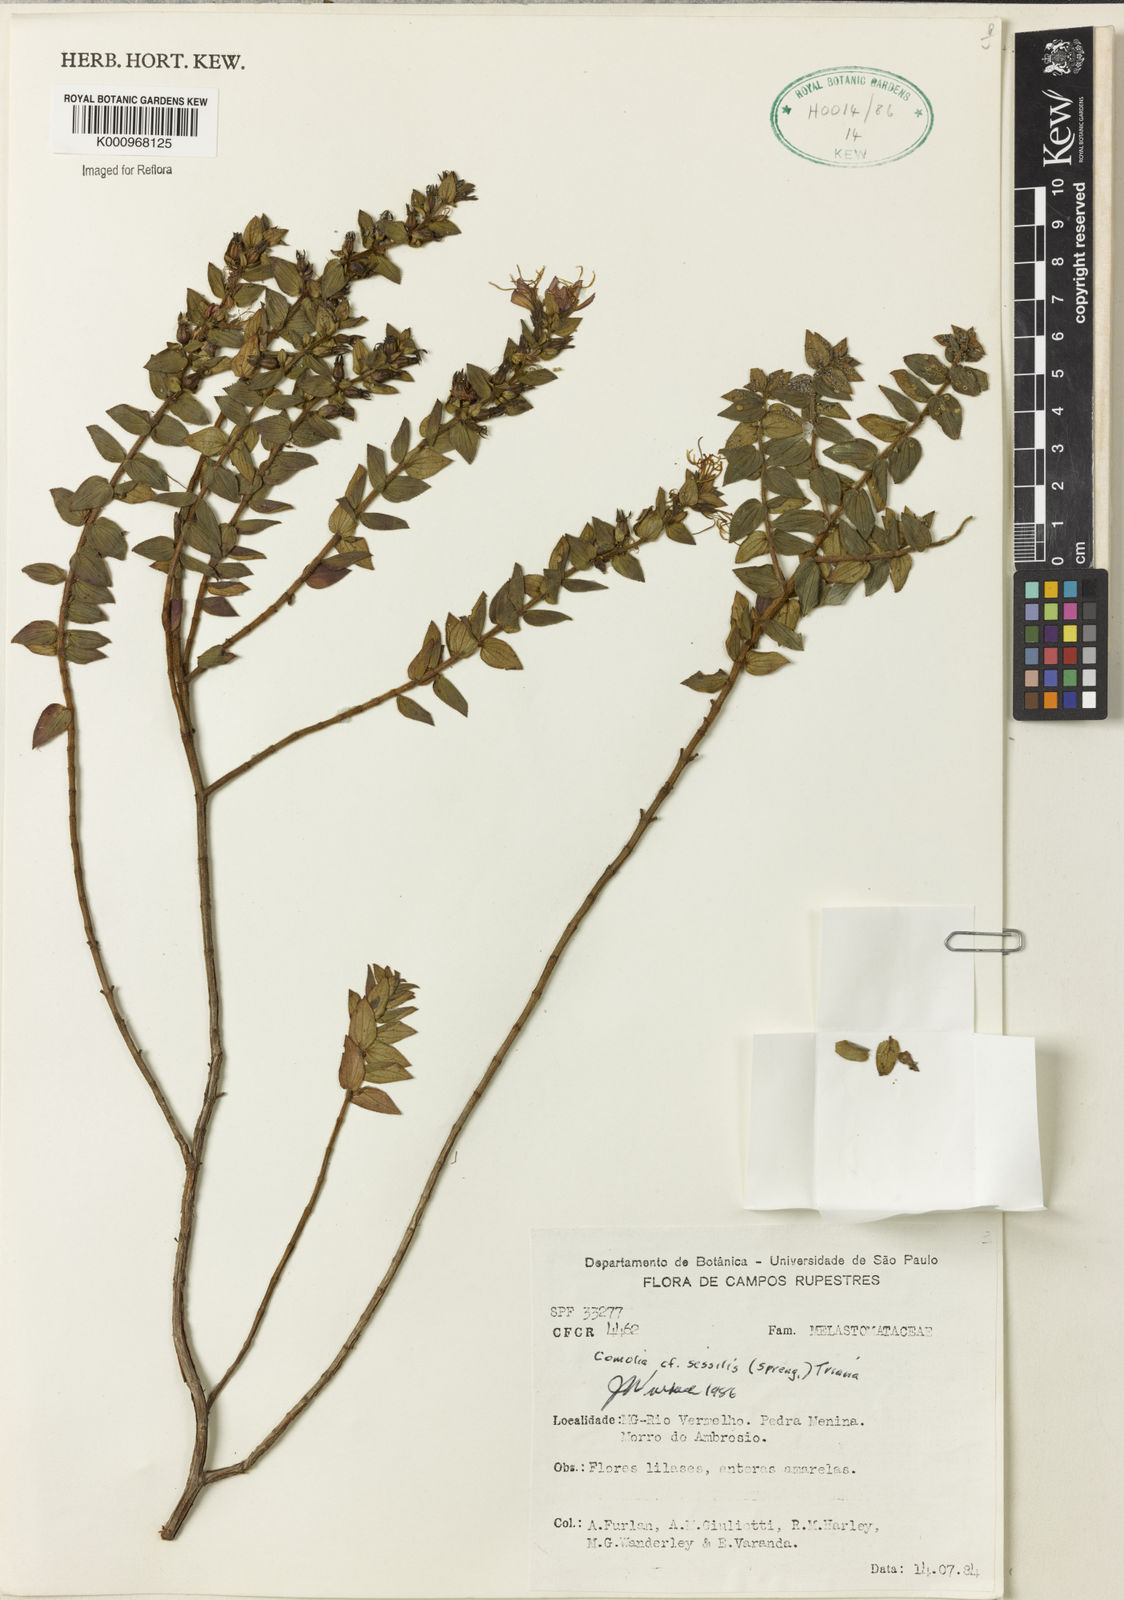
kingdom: Plantae
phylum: Tracheophyta
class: Magnoliopsida
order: Myrtales
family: Melastomataceae
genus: Fritzschia
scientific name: Fritzschia sessilis
